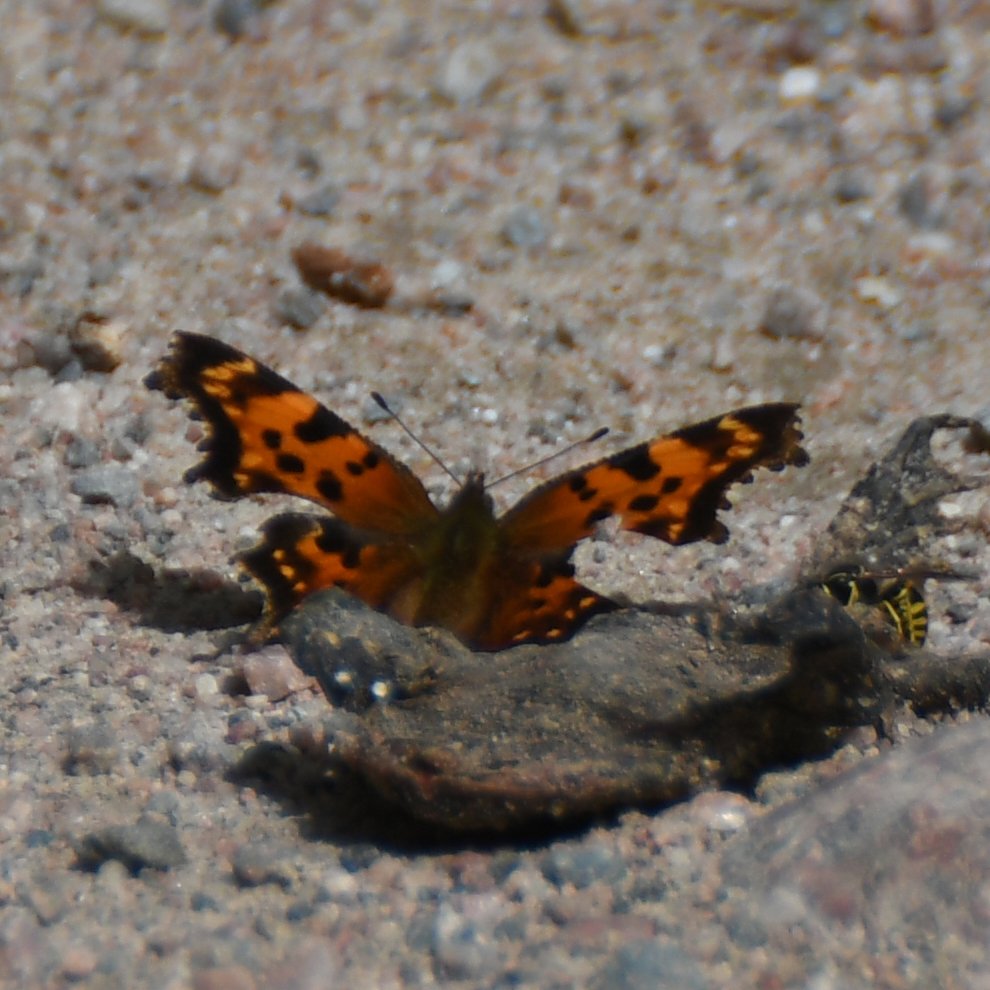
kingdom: Animalia
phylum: Arthropoda
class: Insecta
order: Lepidoptera
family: Nymphalidae
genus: Polygonia
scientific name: Polygonia faunus
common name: Green Comma
